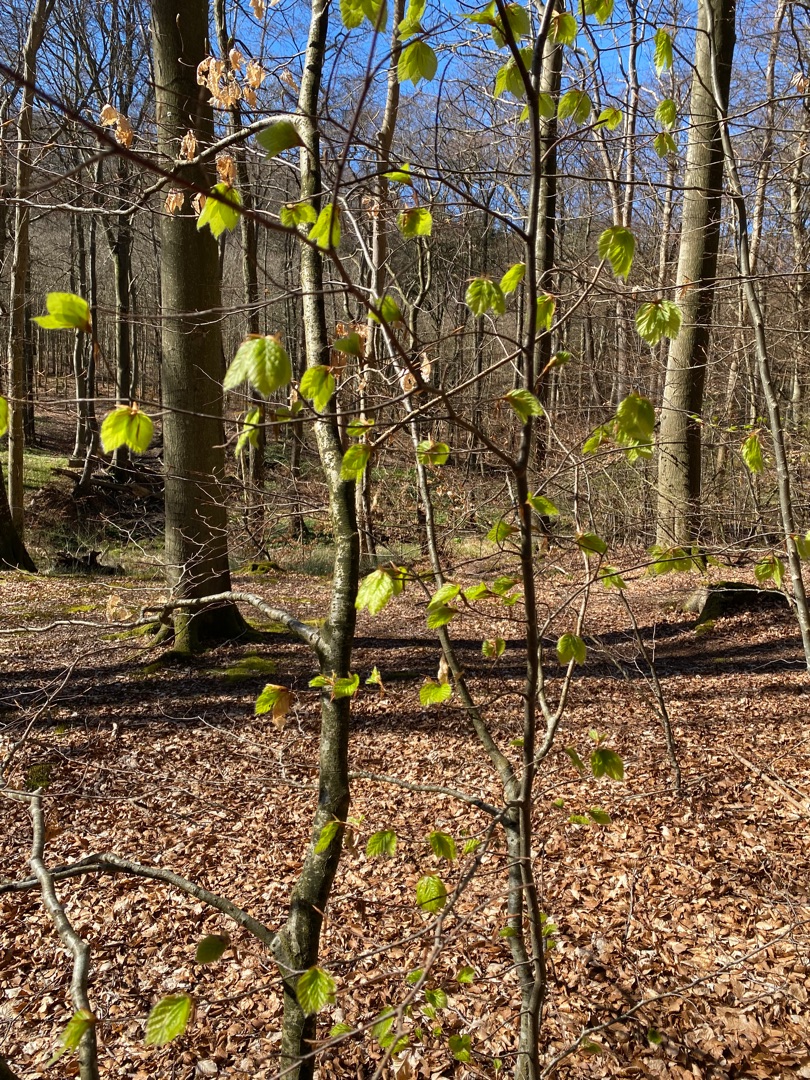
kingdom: Plantae
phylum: Tracheophyta
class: Magnoliopsida
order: Fagales
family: Fagaceae
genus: Fagus
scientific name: Fagus sylvatica
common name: Bøg
